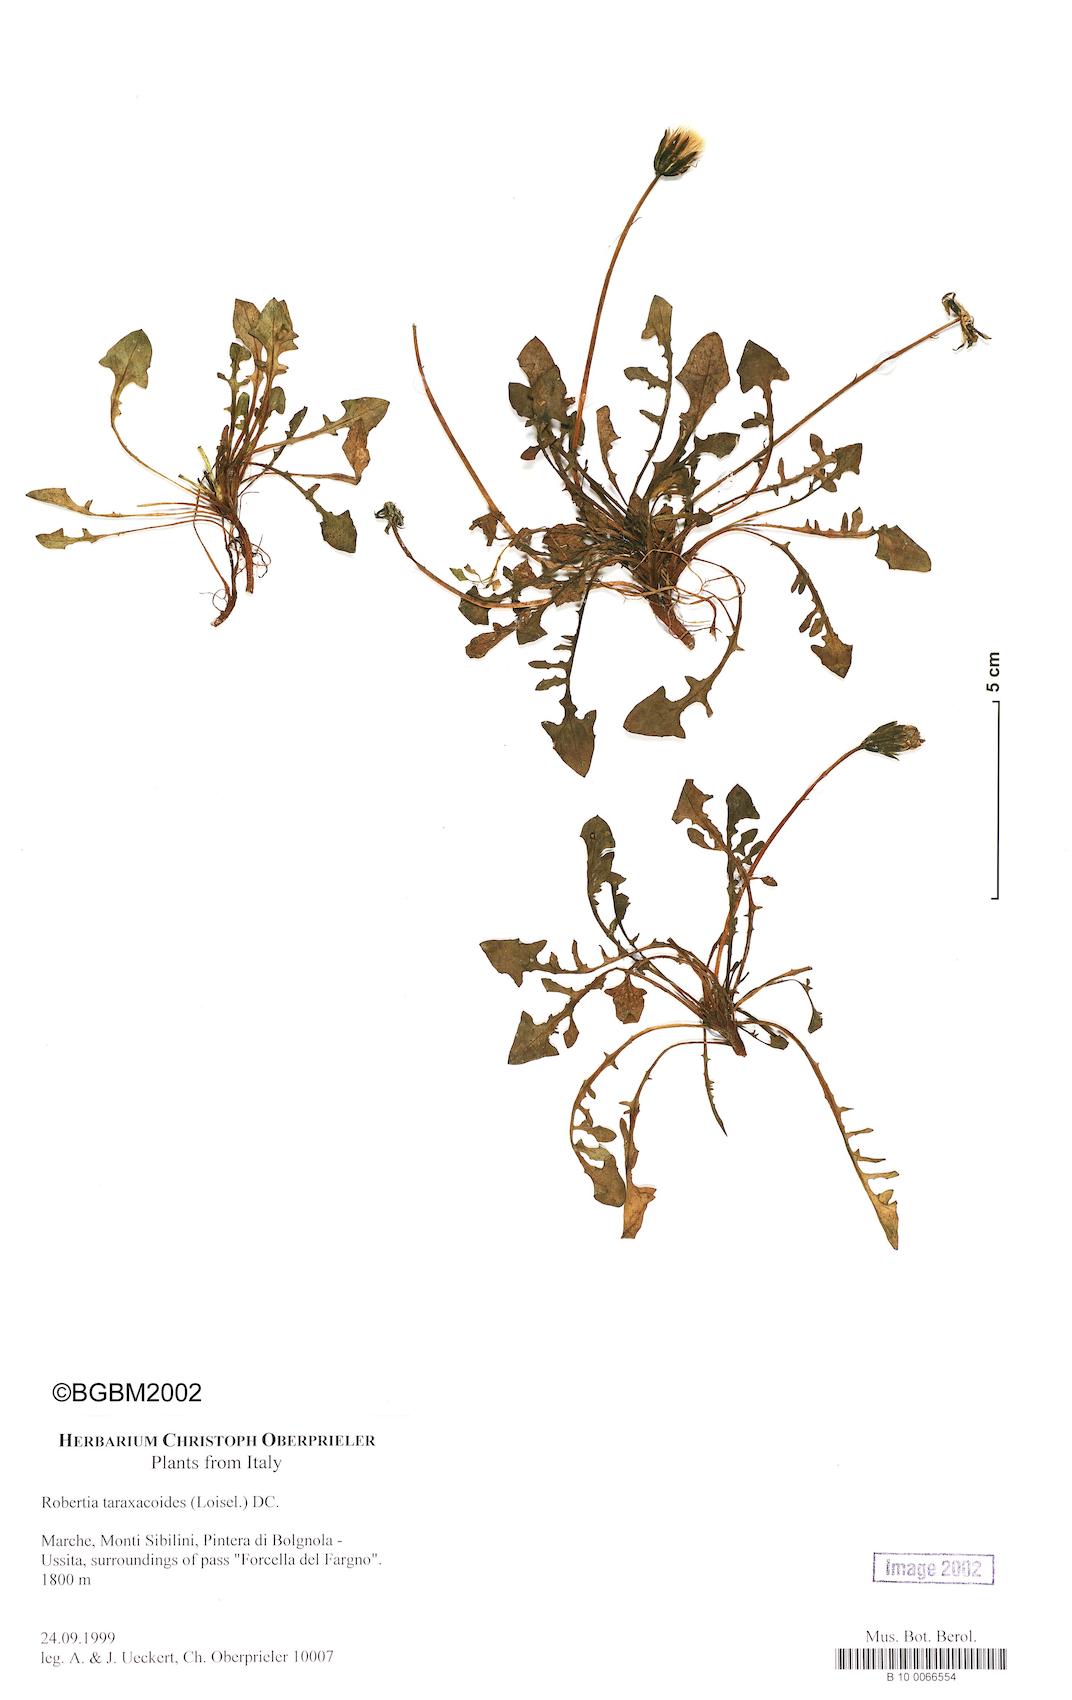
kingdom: Plantae
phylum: Tracheophyta
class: Magnoliopsida
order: Asterales
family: Asteraceae
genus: Hypochaeris
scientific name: Hypochaeris robertia
